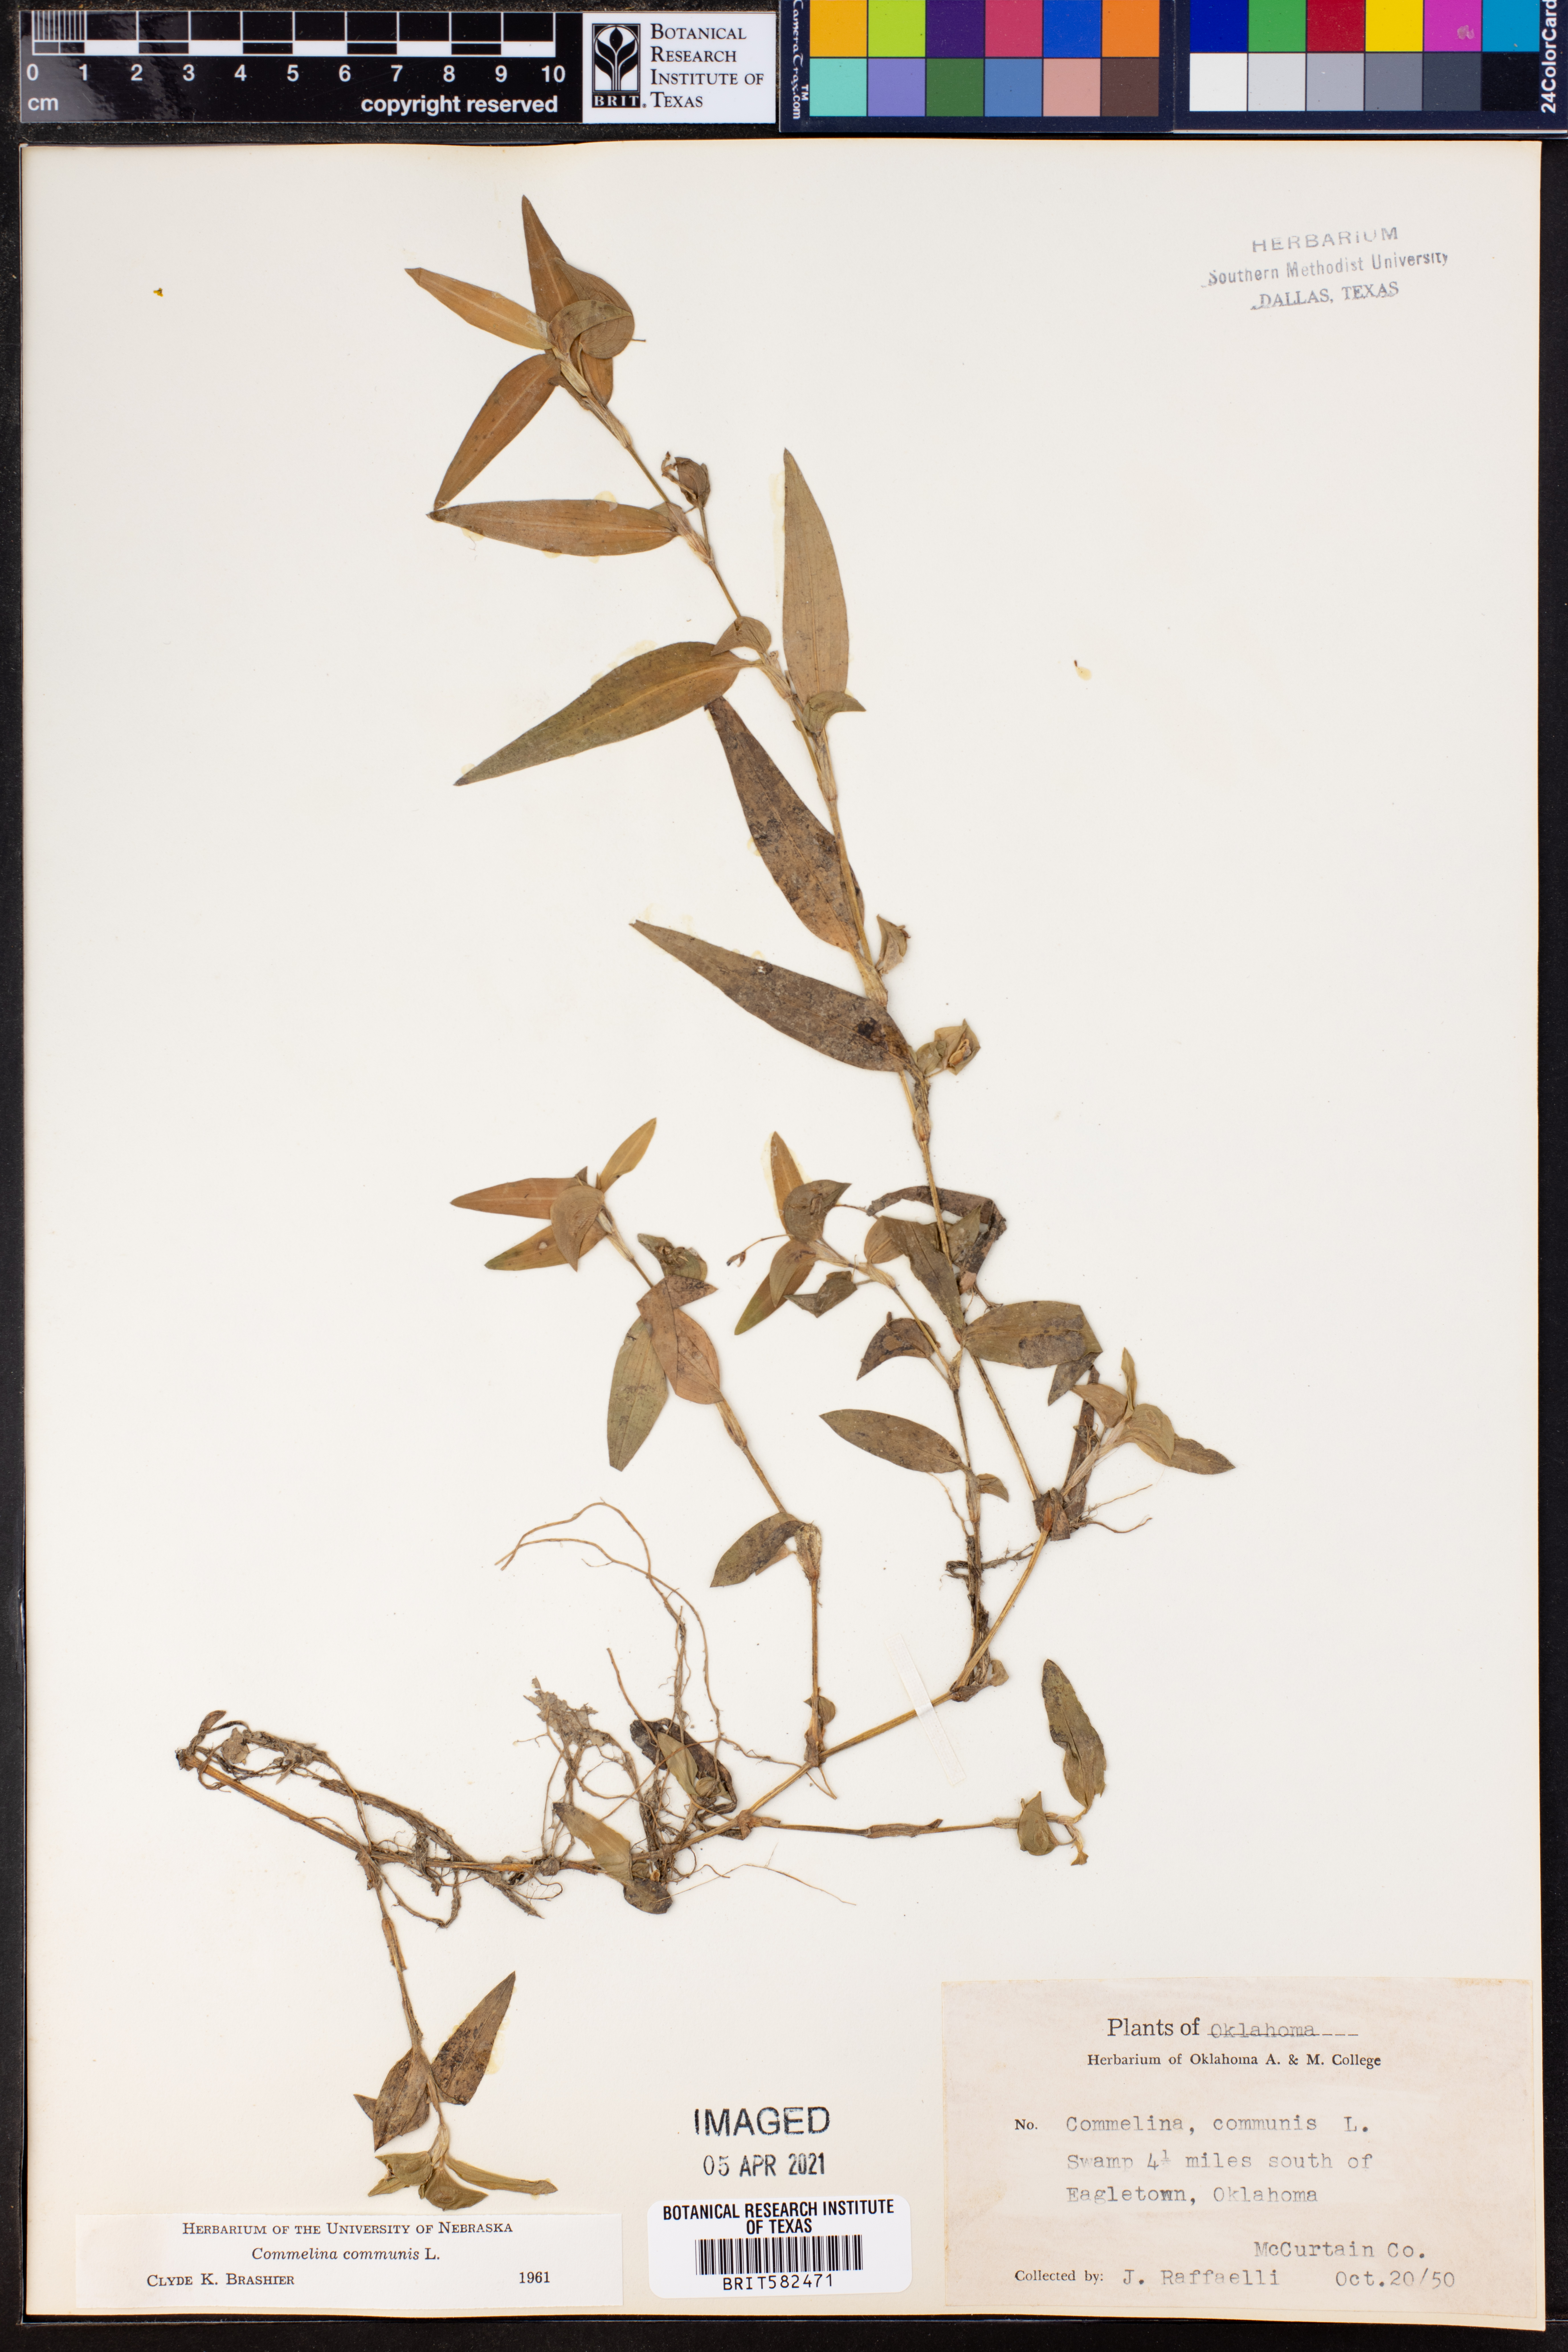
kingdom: Plantae
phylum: Tracheophyta
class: Liliopsida
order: Commelinales
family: Commelinaceae
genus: Commelina
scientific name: Commelina communis
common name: Asiatic dayflower
